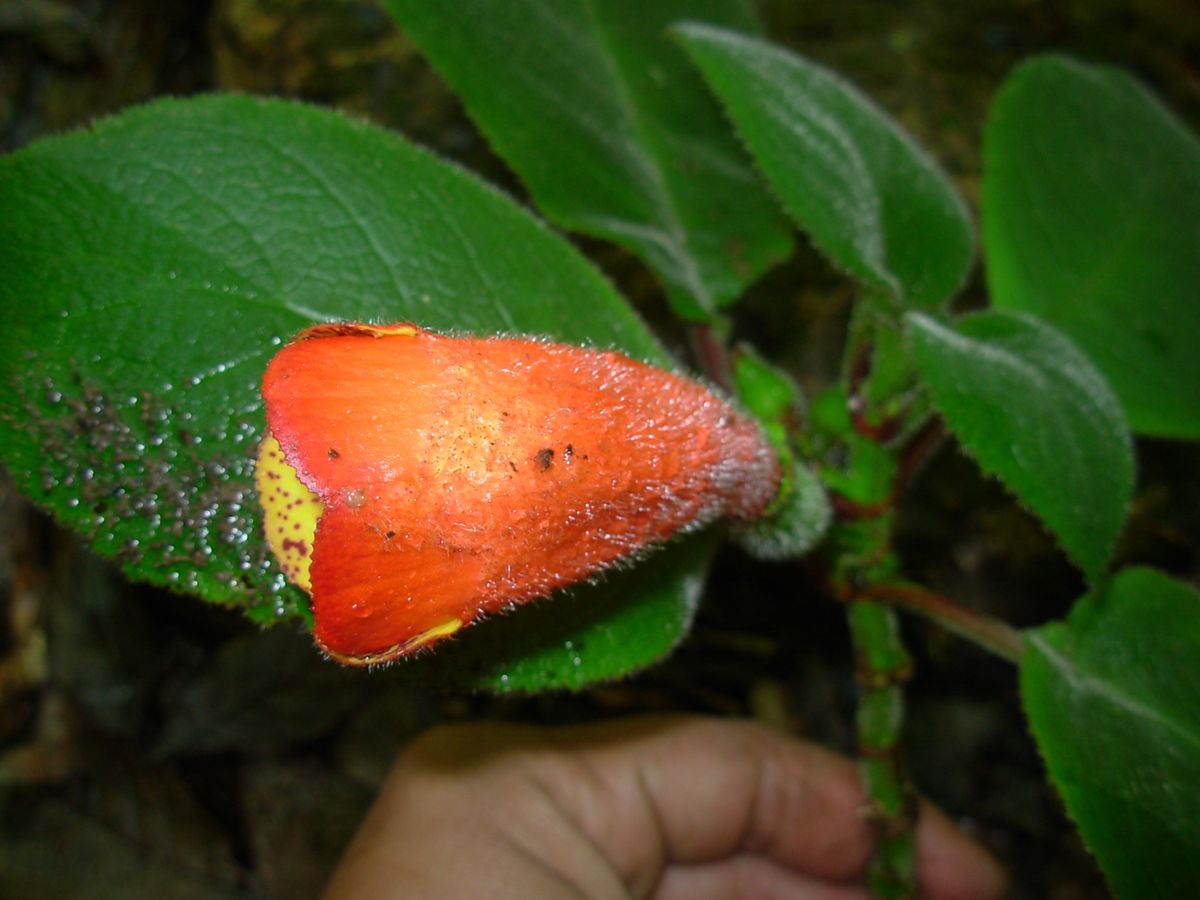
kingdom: Plantae
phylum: Tracheophyta
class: Magnoliopsida
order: Lamiales
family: Gesneriaceae
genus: Solenophora
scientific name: Solenophora calycosa
